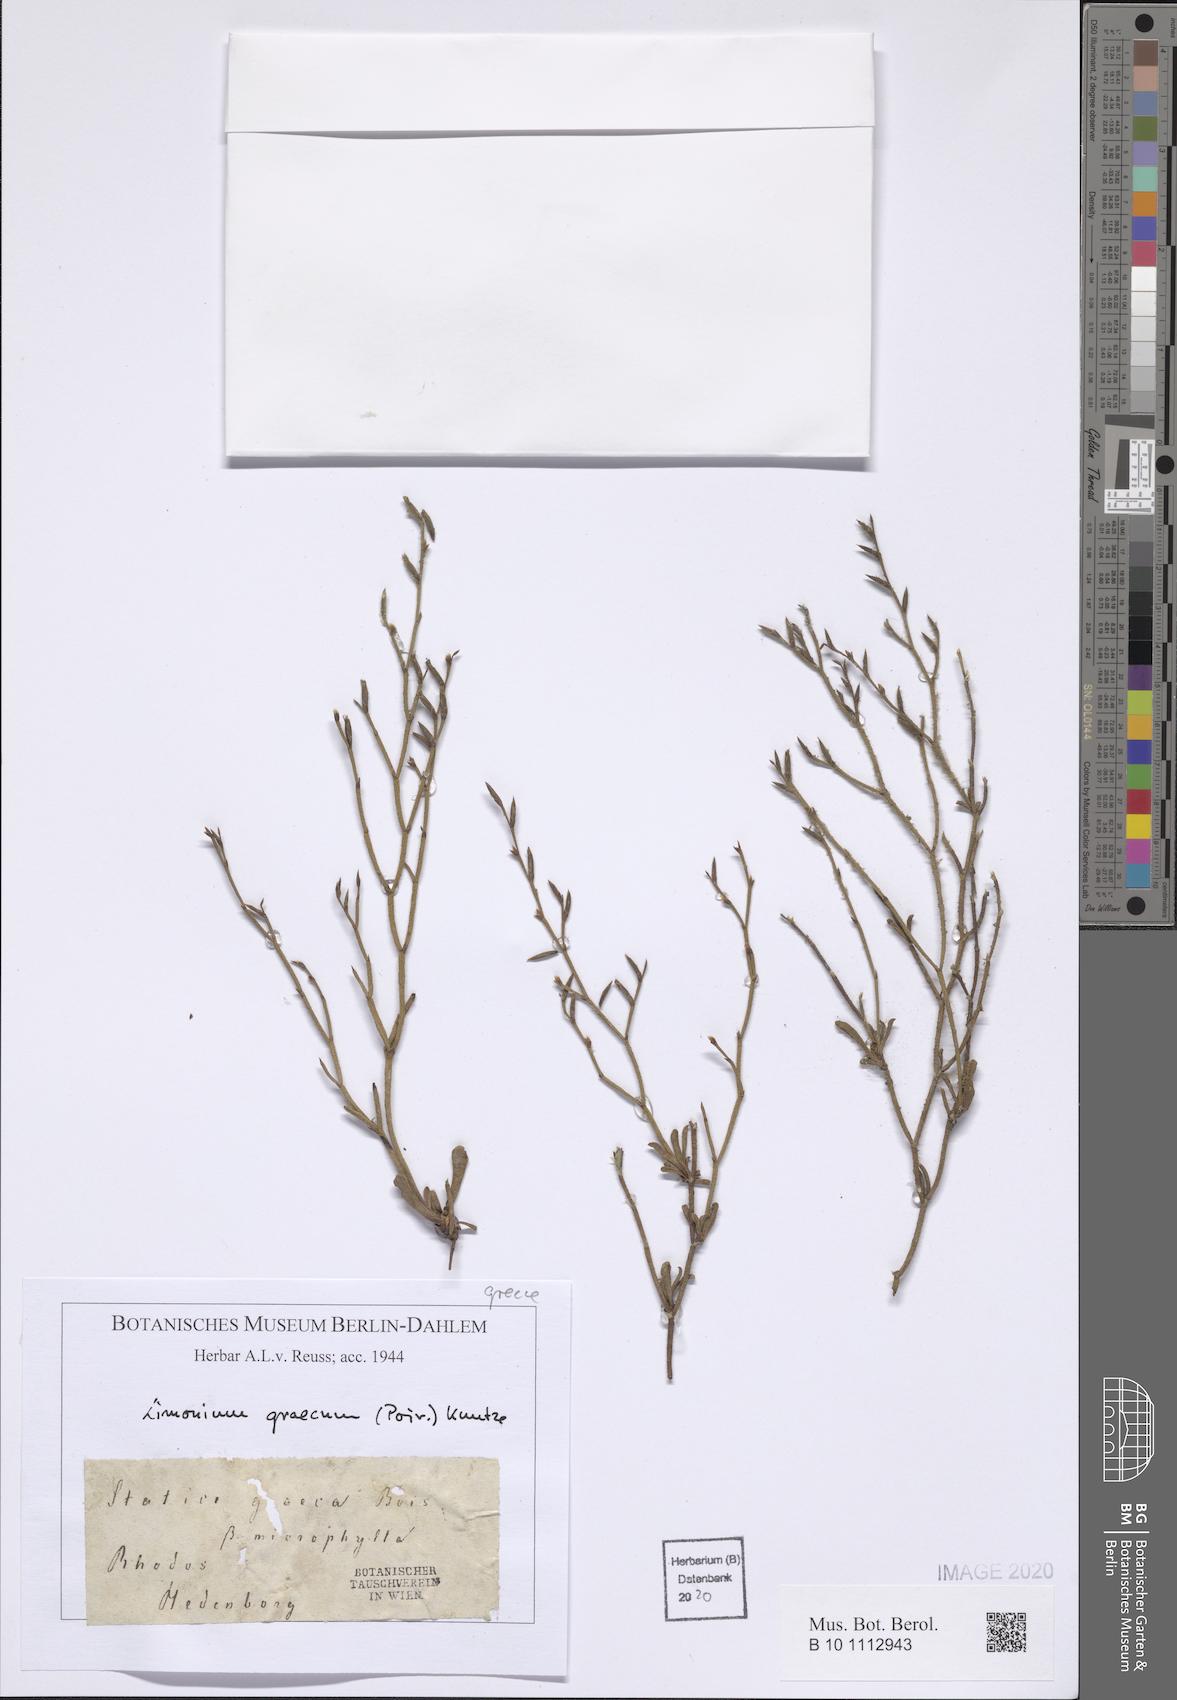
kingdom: Plantae
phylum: Tracheophyta
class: Magnoliopsida
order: Caryophyllales
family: Plumbaginaceae
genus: Limonium
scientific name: Limonium graecum
